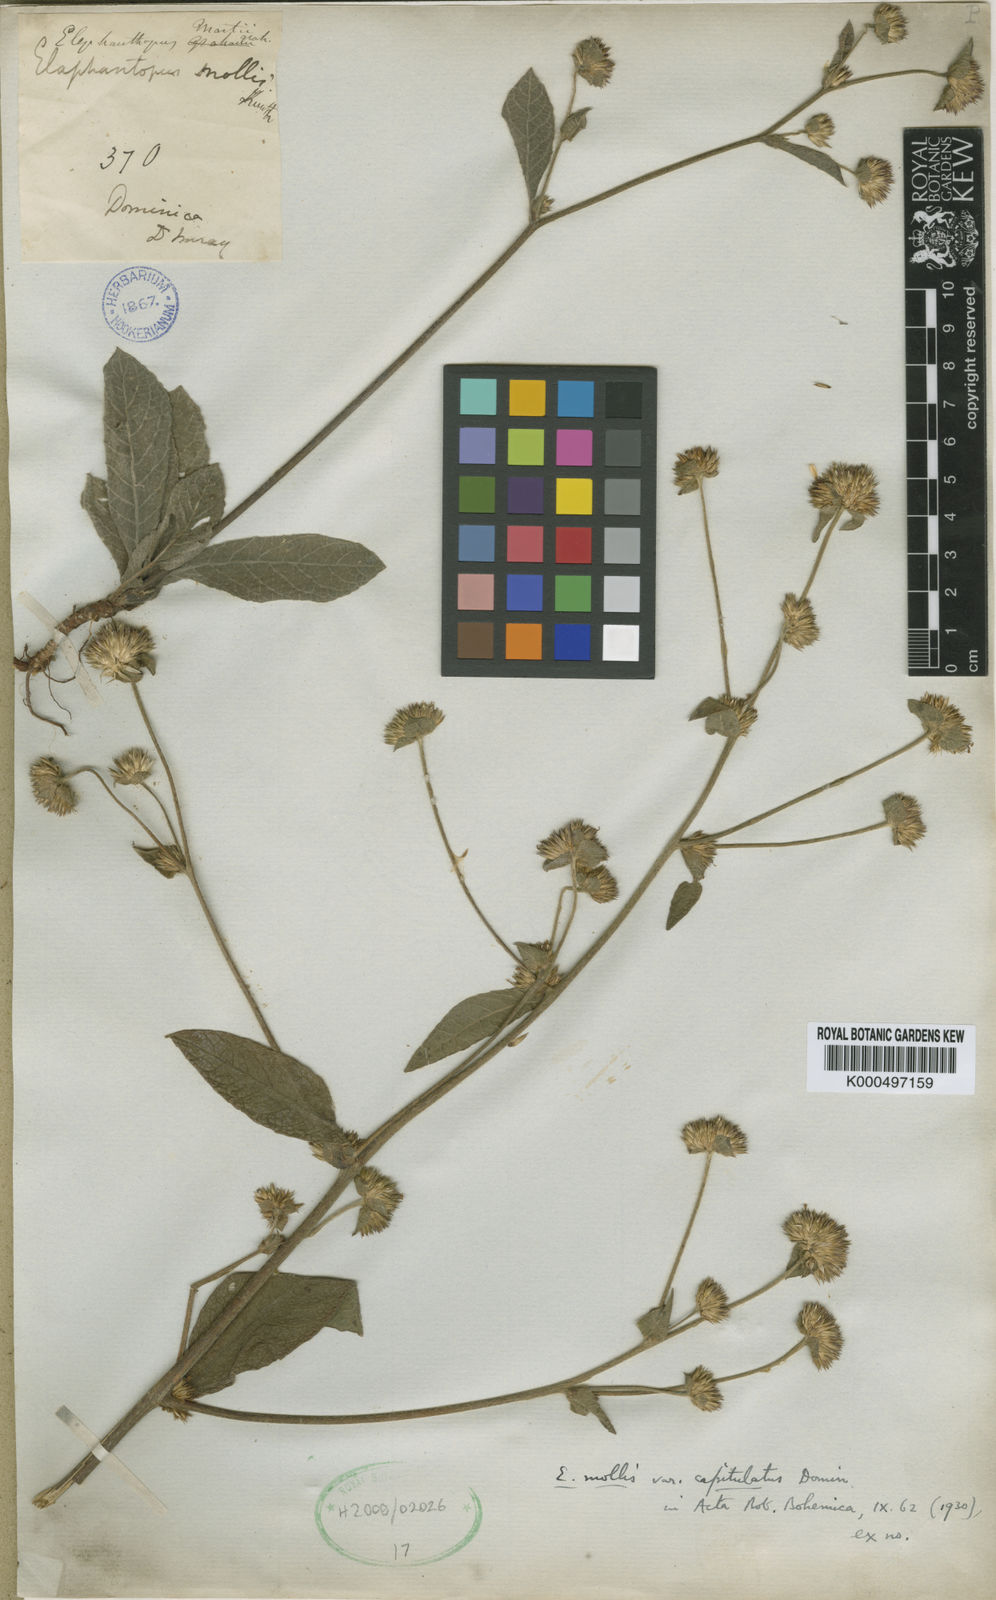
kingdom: Plantae
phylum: Tracheophyta
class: Magnoliopsida
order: Asterales
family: Asteraceae
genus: Elephantopus
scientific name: Elephantopus mollis
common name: Soft elephantsfoot
